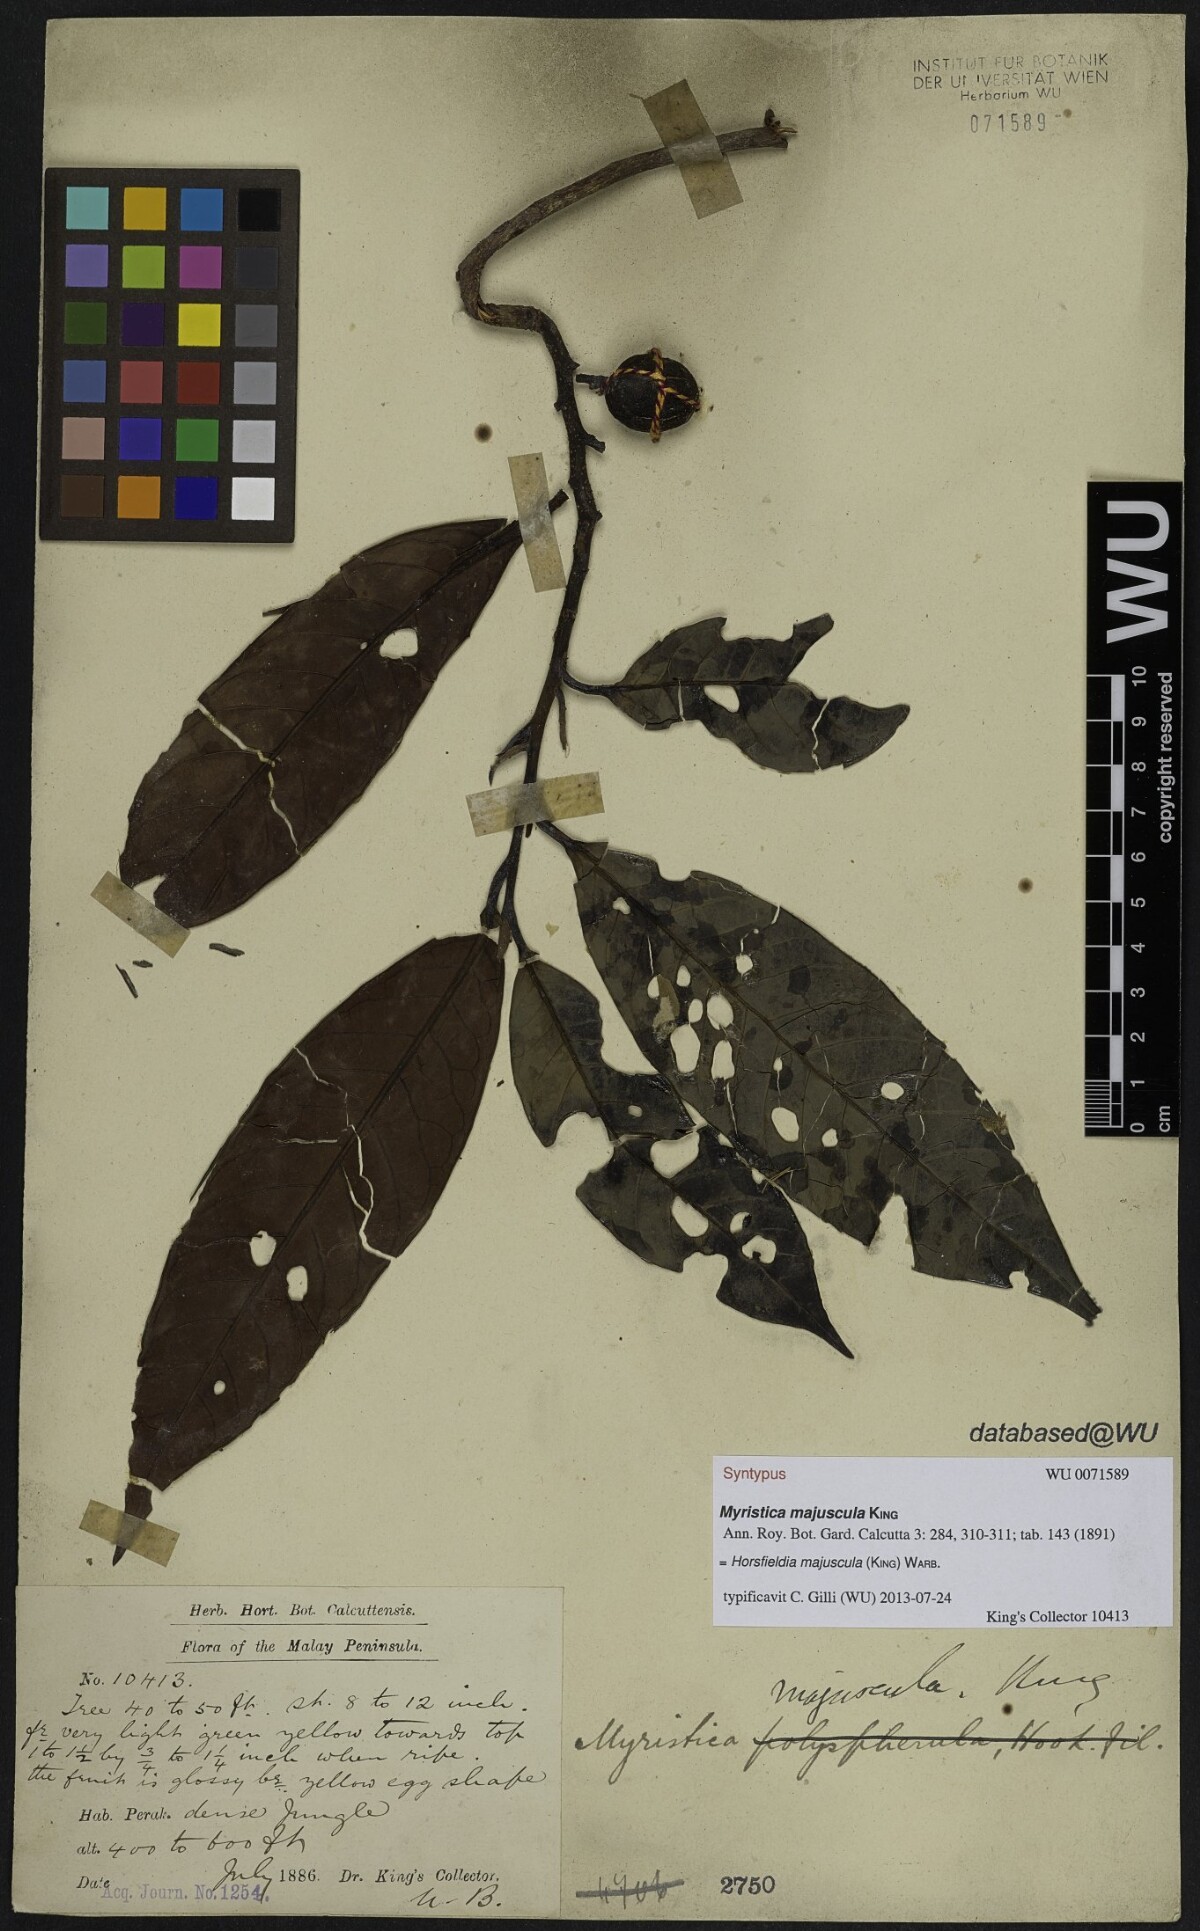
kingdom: Plantae
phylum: Tracheophyta
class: Magnoliopsida
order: Magnoliales
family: Myristicaceae
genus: Horsfieldia
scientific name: Horsfieldia majuscula
